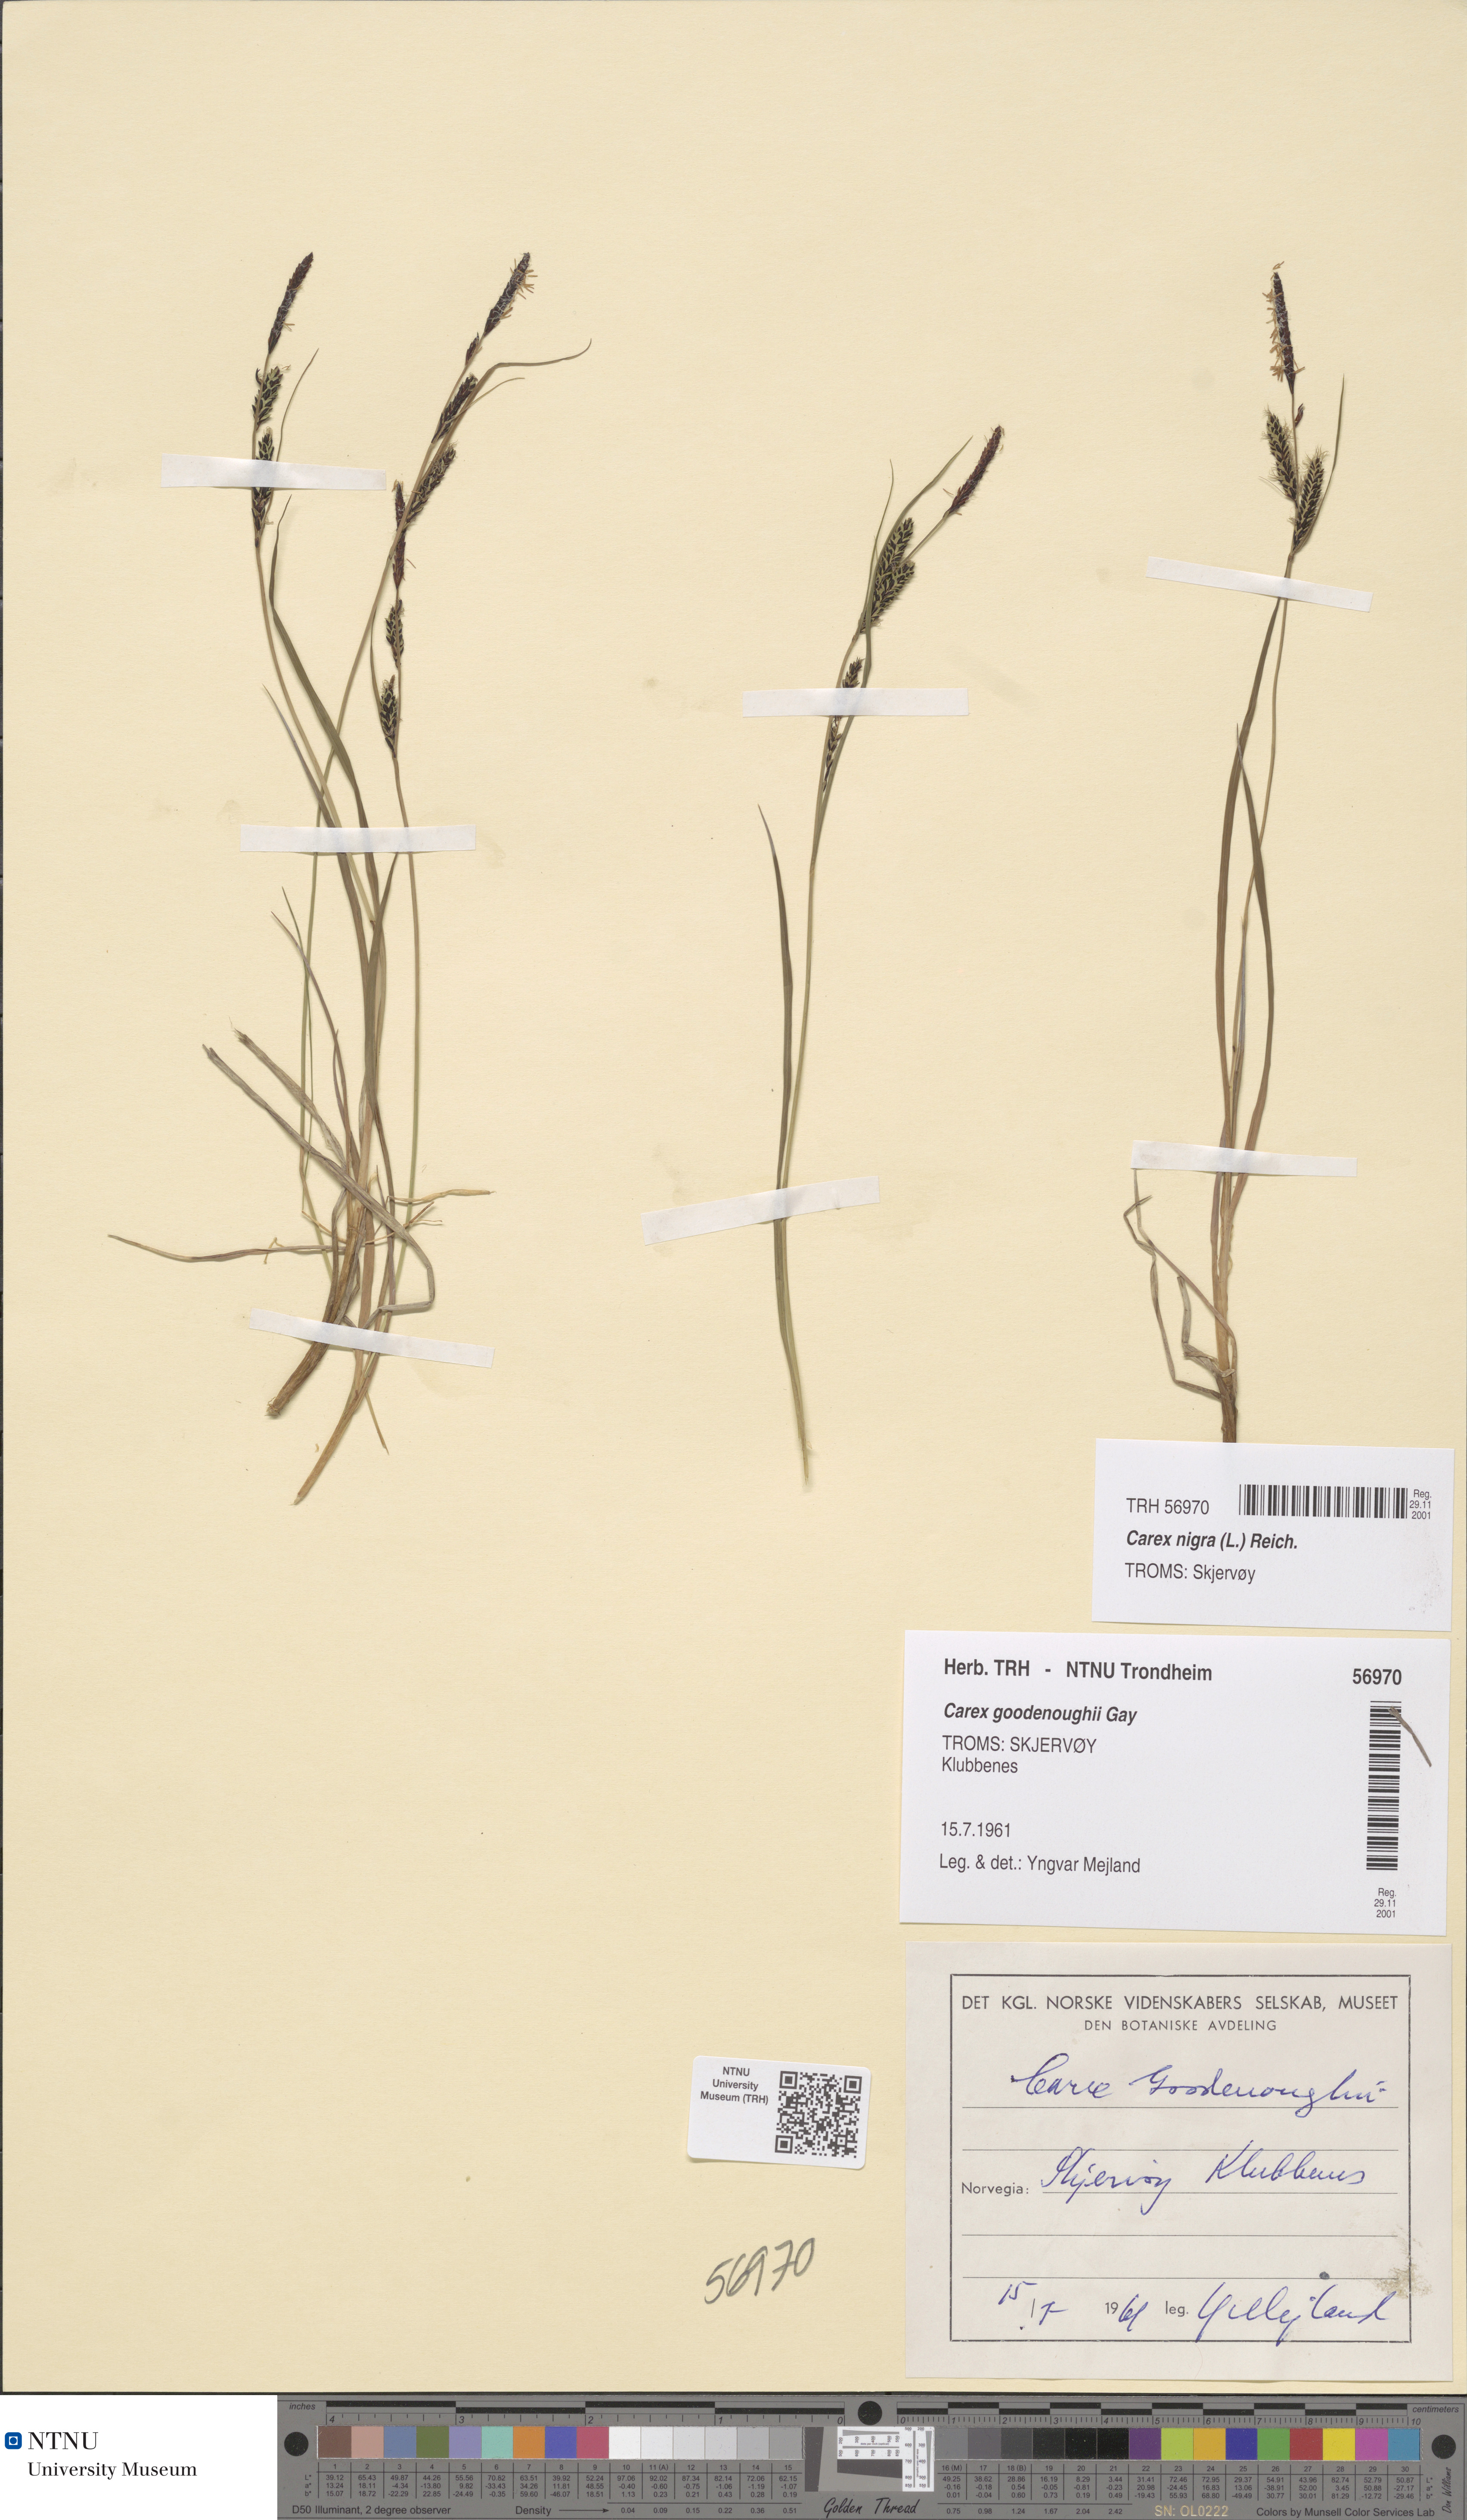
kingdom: Plantae
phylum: Tracheophyta
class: Liliopsida
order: Poales
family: Cyperaceae
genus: Carex
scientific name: Carex nigra
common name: Common sedge
